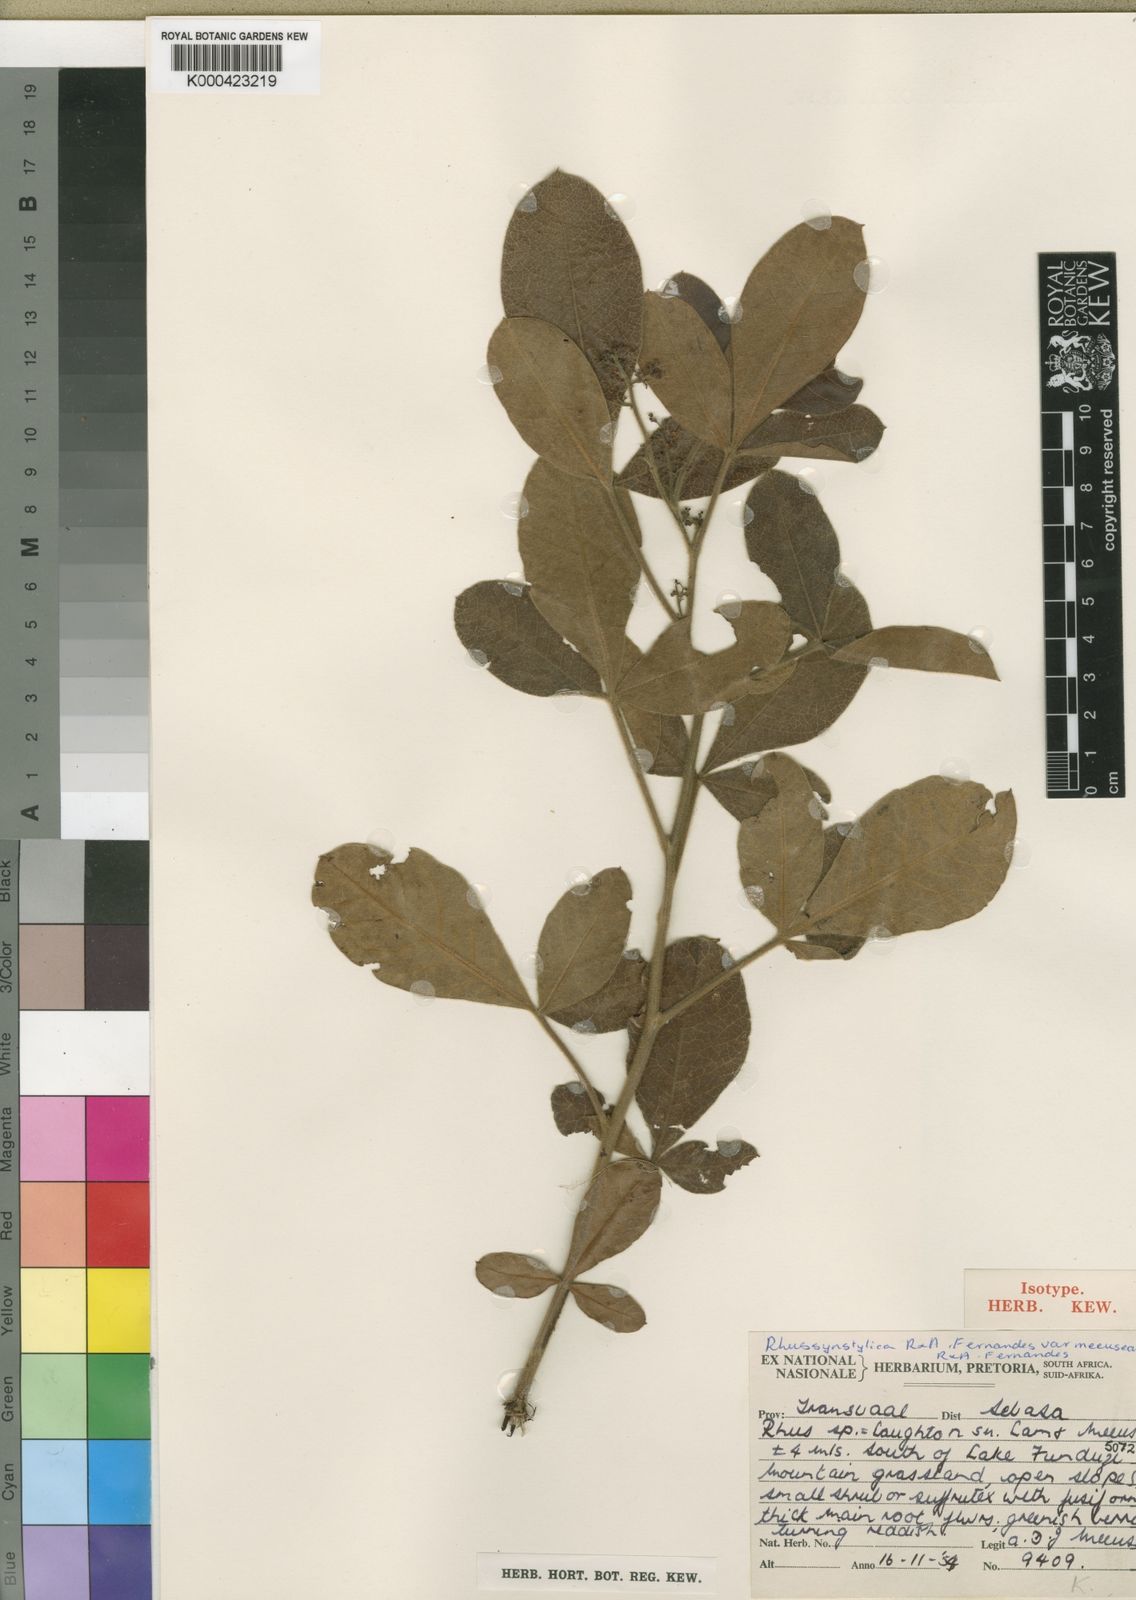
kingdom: Plantae
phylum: Tracheophyta
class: Magnoliopsida
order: Sapindales
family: Anacardiaceae
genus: Searsia
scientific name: Searsia tumulicola
